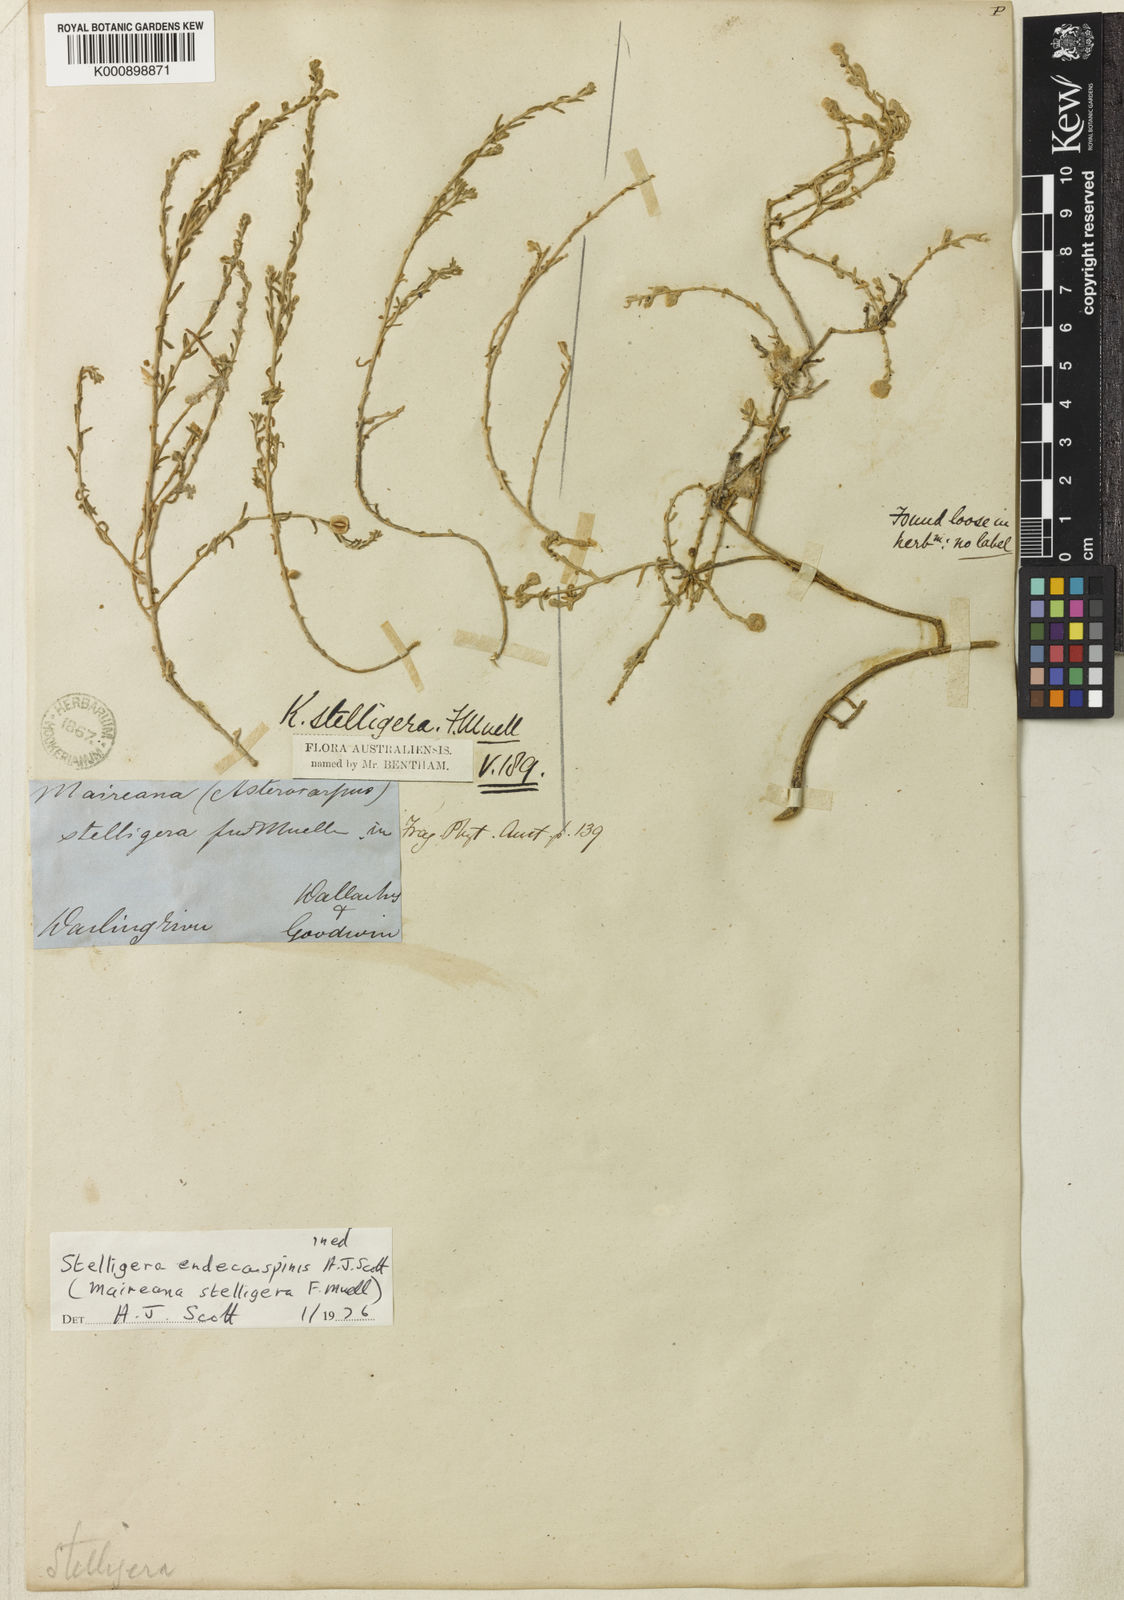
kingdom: Plantae
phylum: Tracheophyta
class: Magnoliopsida
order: Caryophyllales
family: Amaranthaceae
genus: Sclerolaena
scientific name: Sclerolaena stelligera
